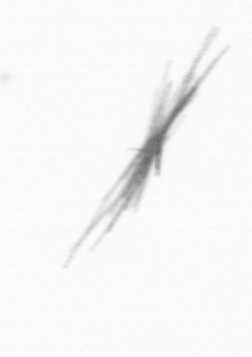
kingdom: Bacteria
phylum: Cyanobacteria
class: Cyanobacteriia
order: Cyanobacteriales
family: Microcoleaceae
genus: Trichodesmium
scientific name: Trichodesmium
